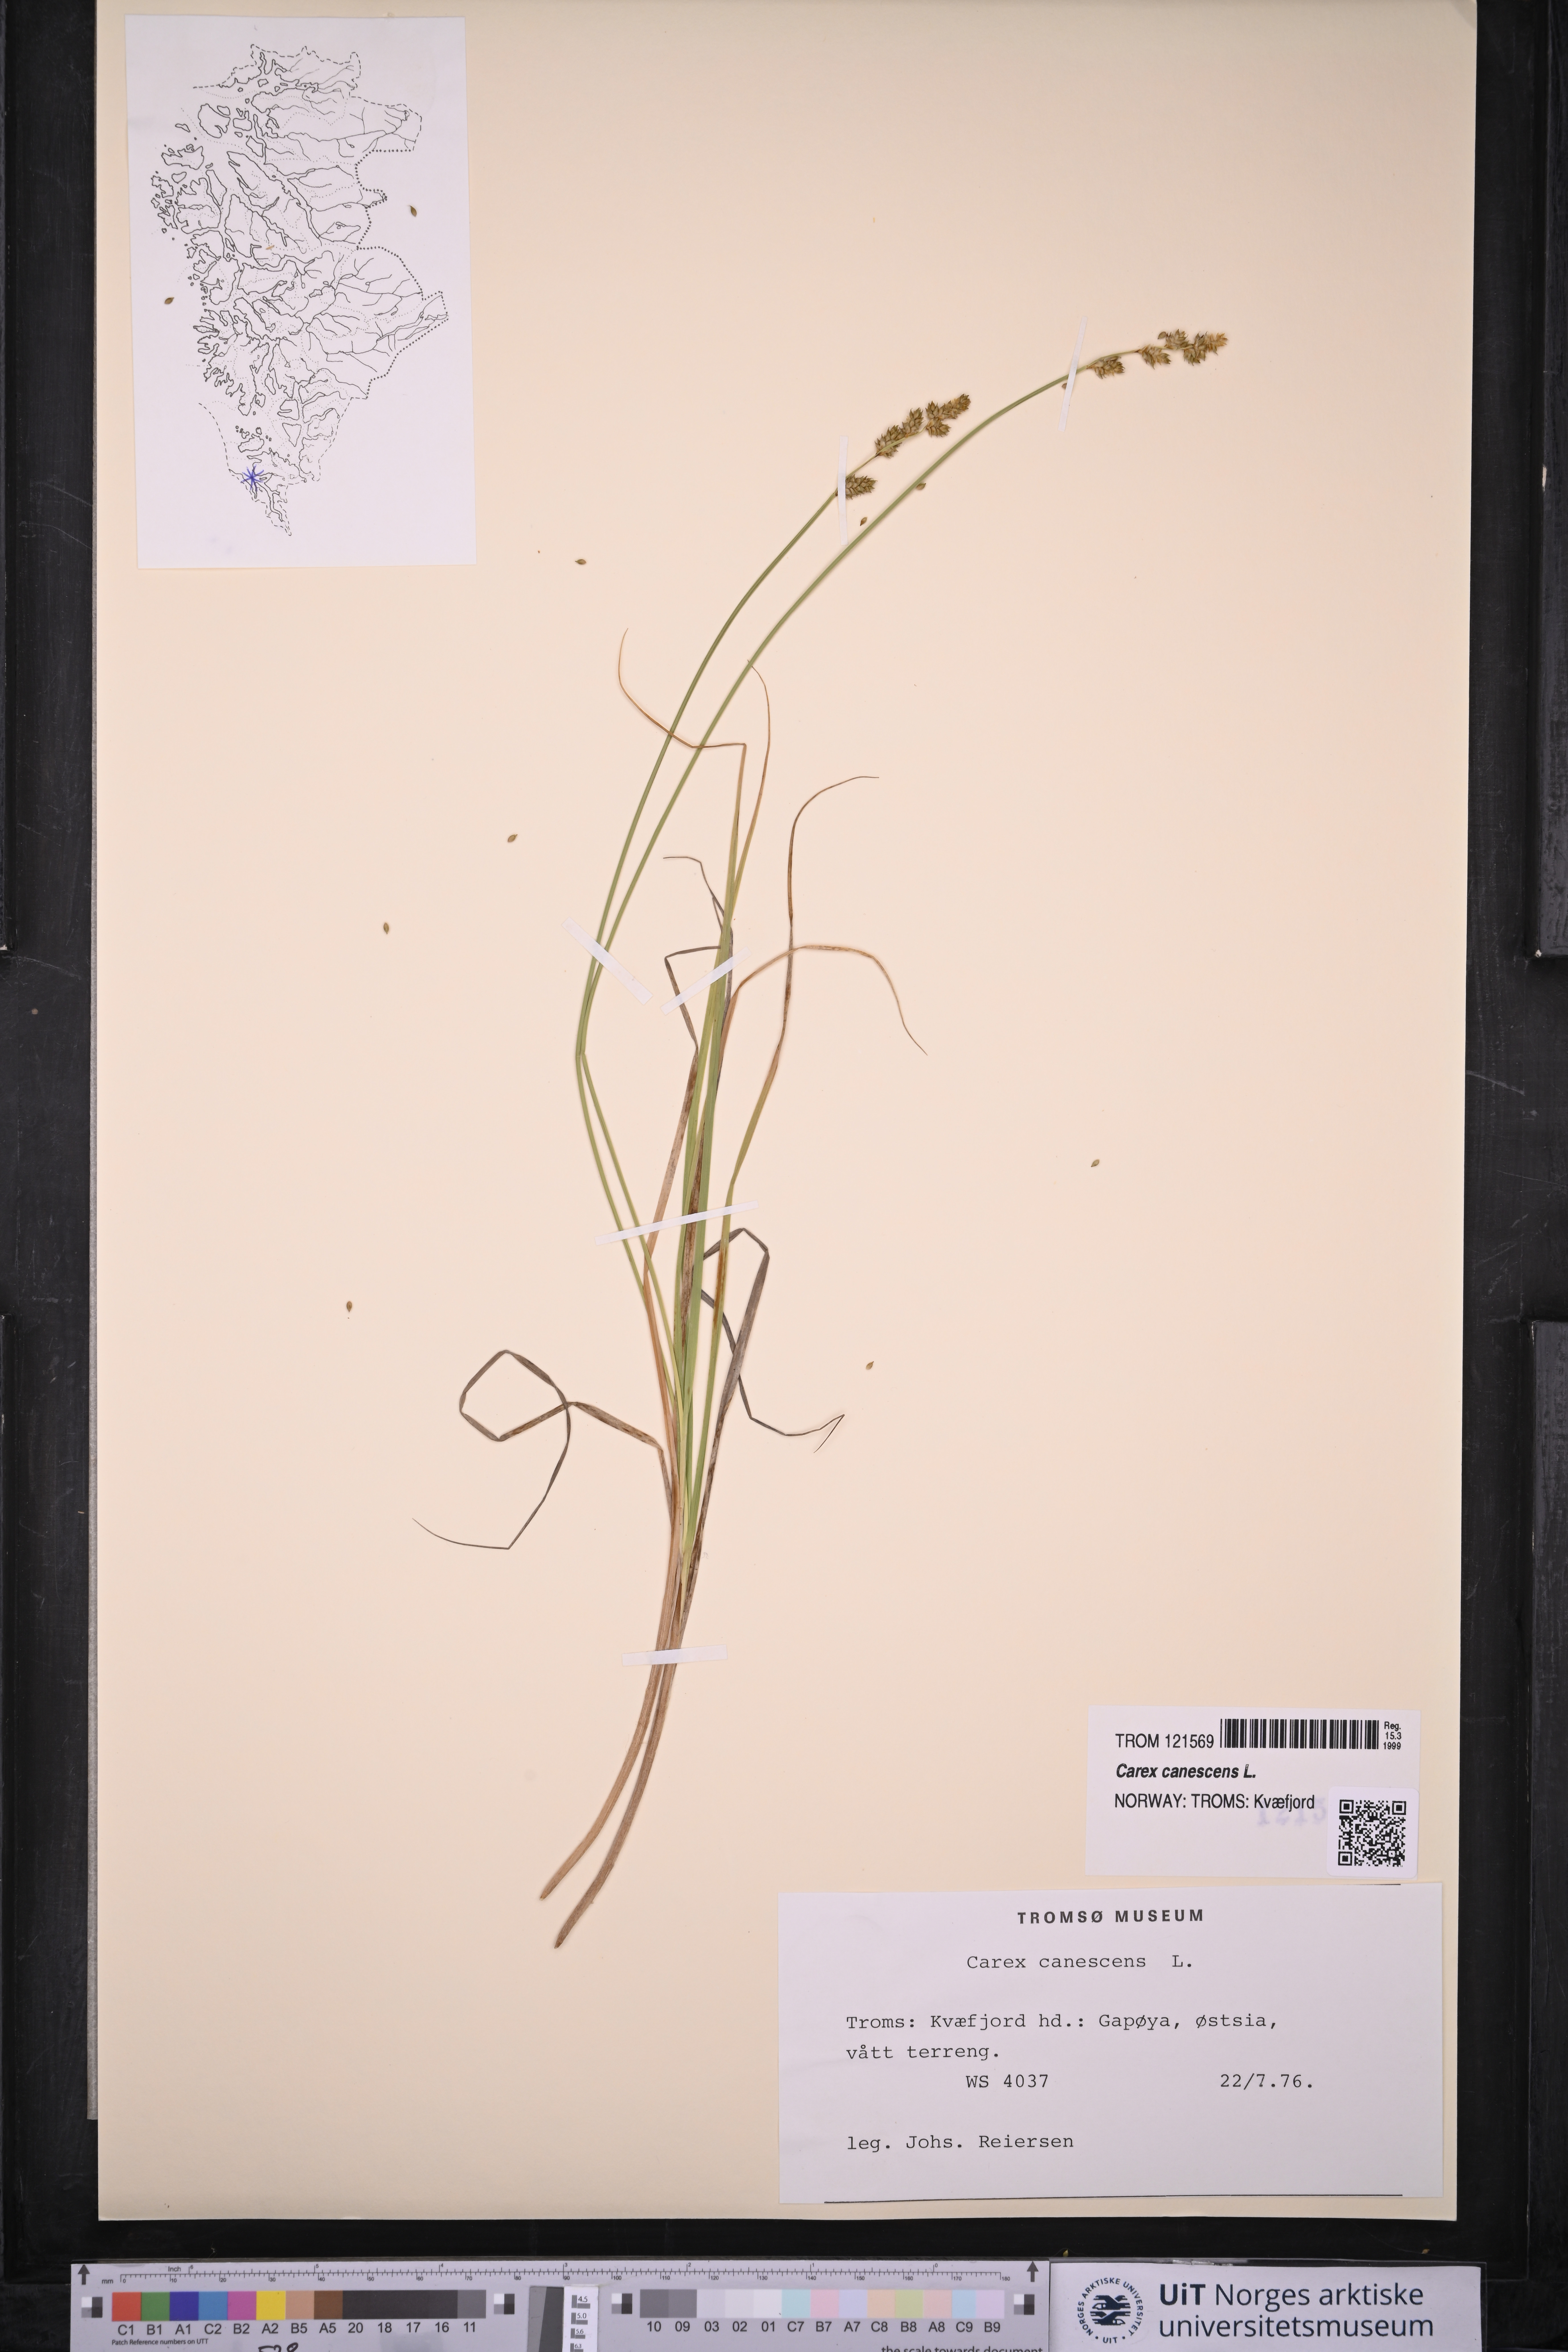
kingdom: Plantae
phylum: Tracheophyta
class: Liliopsida
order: Poales
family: Cyperaceae
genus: Carex
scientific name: Carex canescens
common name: White sedge
